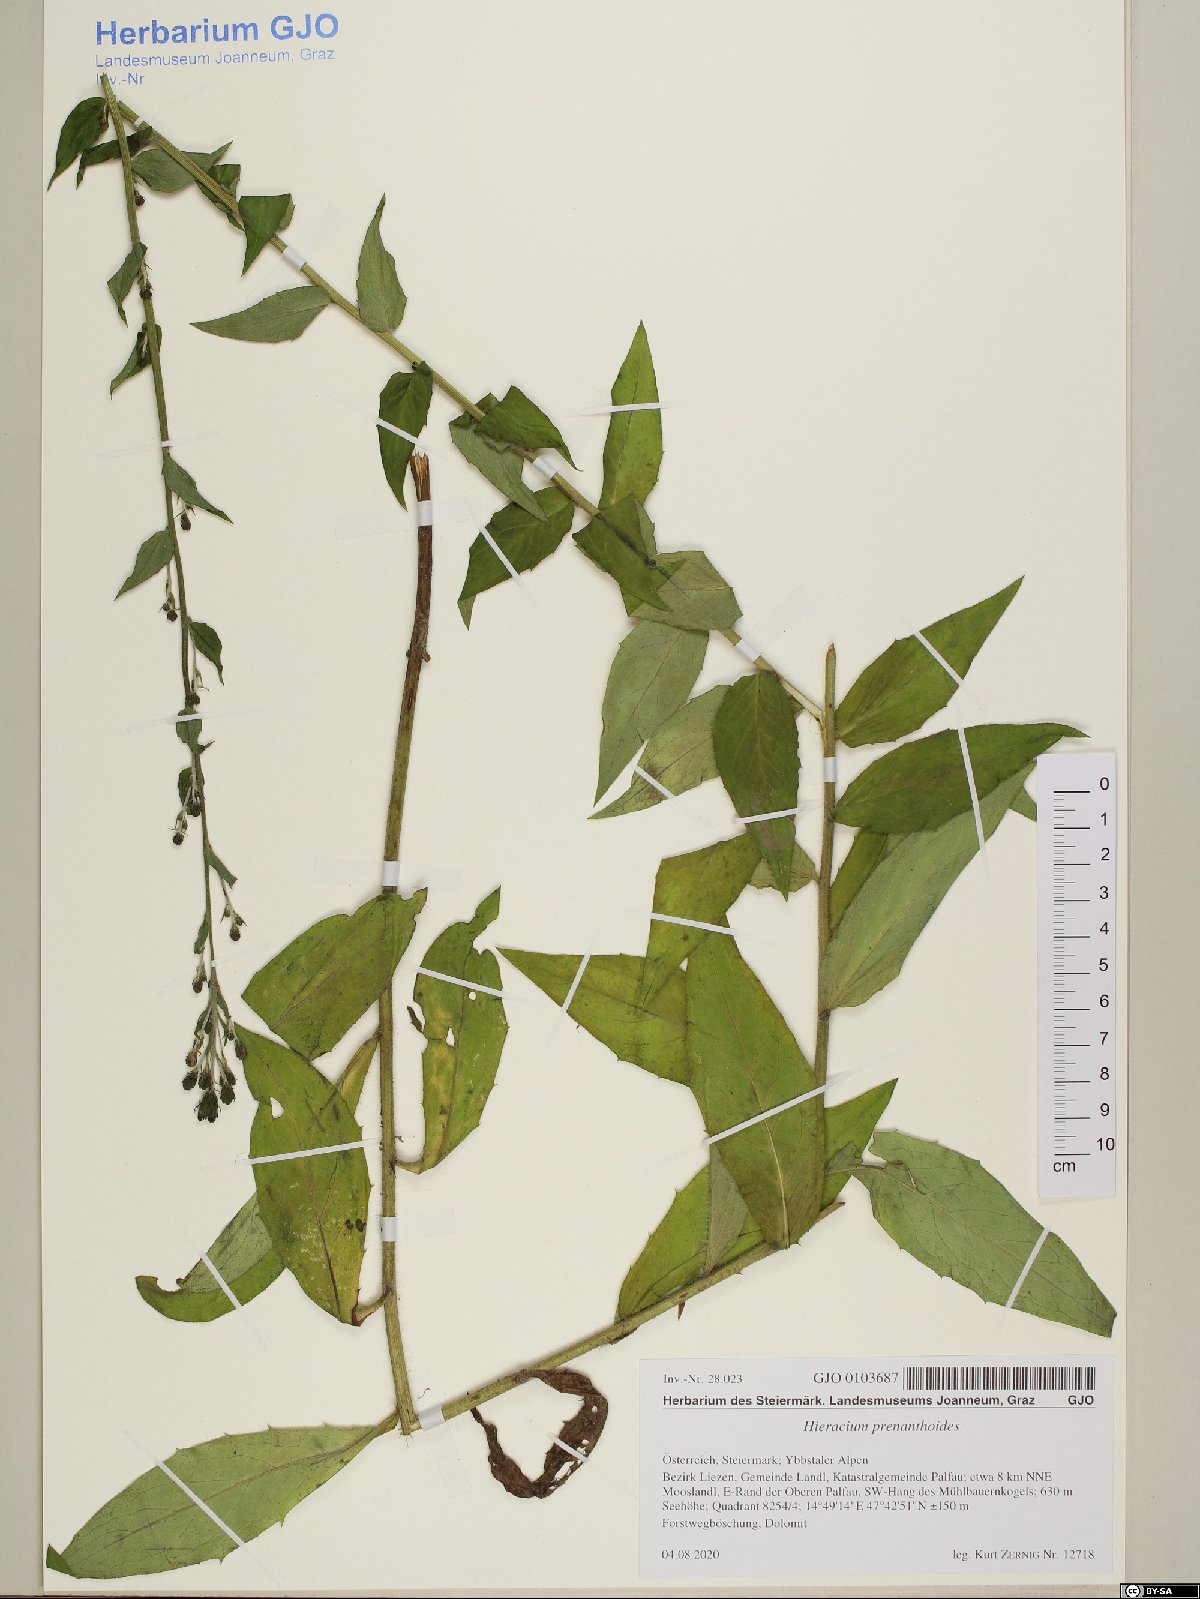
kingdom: Plantae
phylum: Tracheophyta
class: Magnoliopsida
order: Asterales
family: Asteraceae
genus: Hieracium
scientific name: Hieracium prenanthoides
